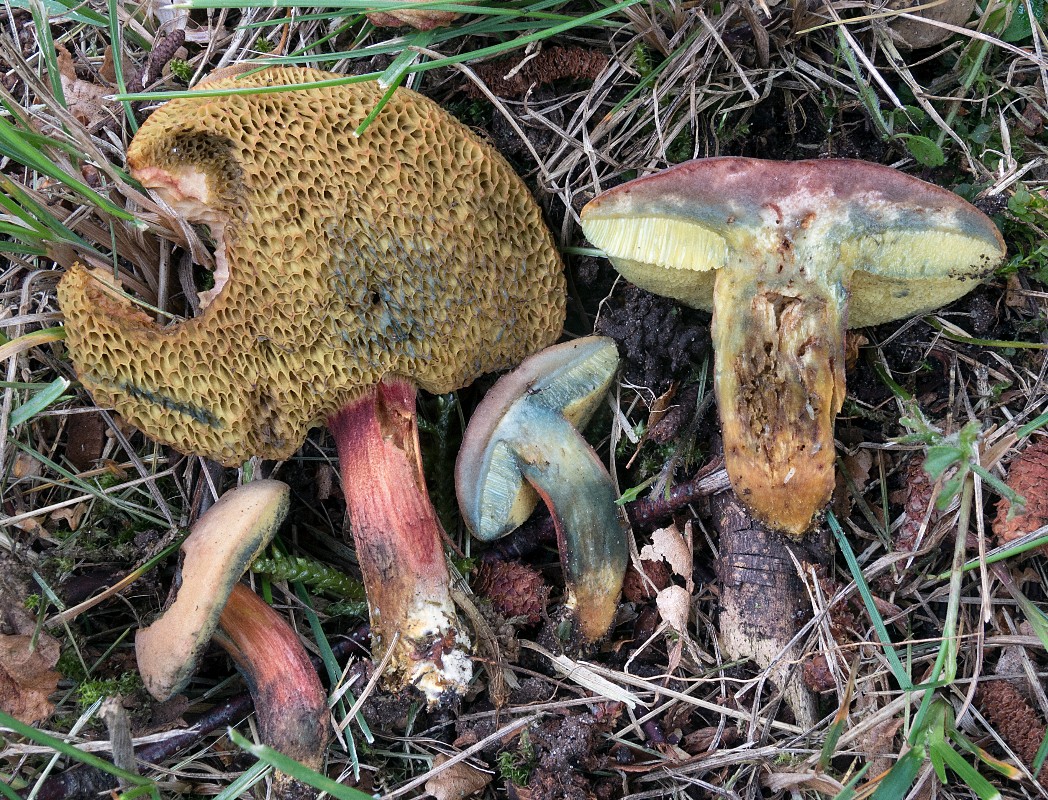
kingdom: Fungi
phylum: Basidiomycota
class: Agaricomycetes
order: Boletales
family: Boletaceae
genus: Hortiboletus
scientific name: Hortiboletus bubalinus
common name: aurora-rørhat
